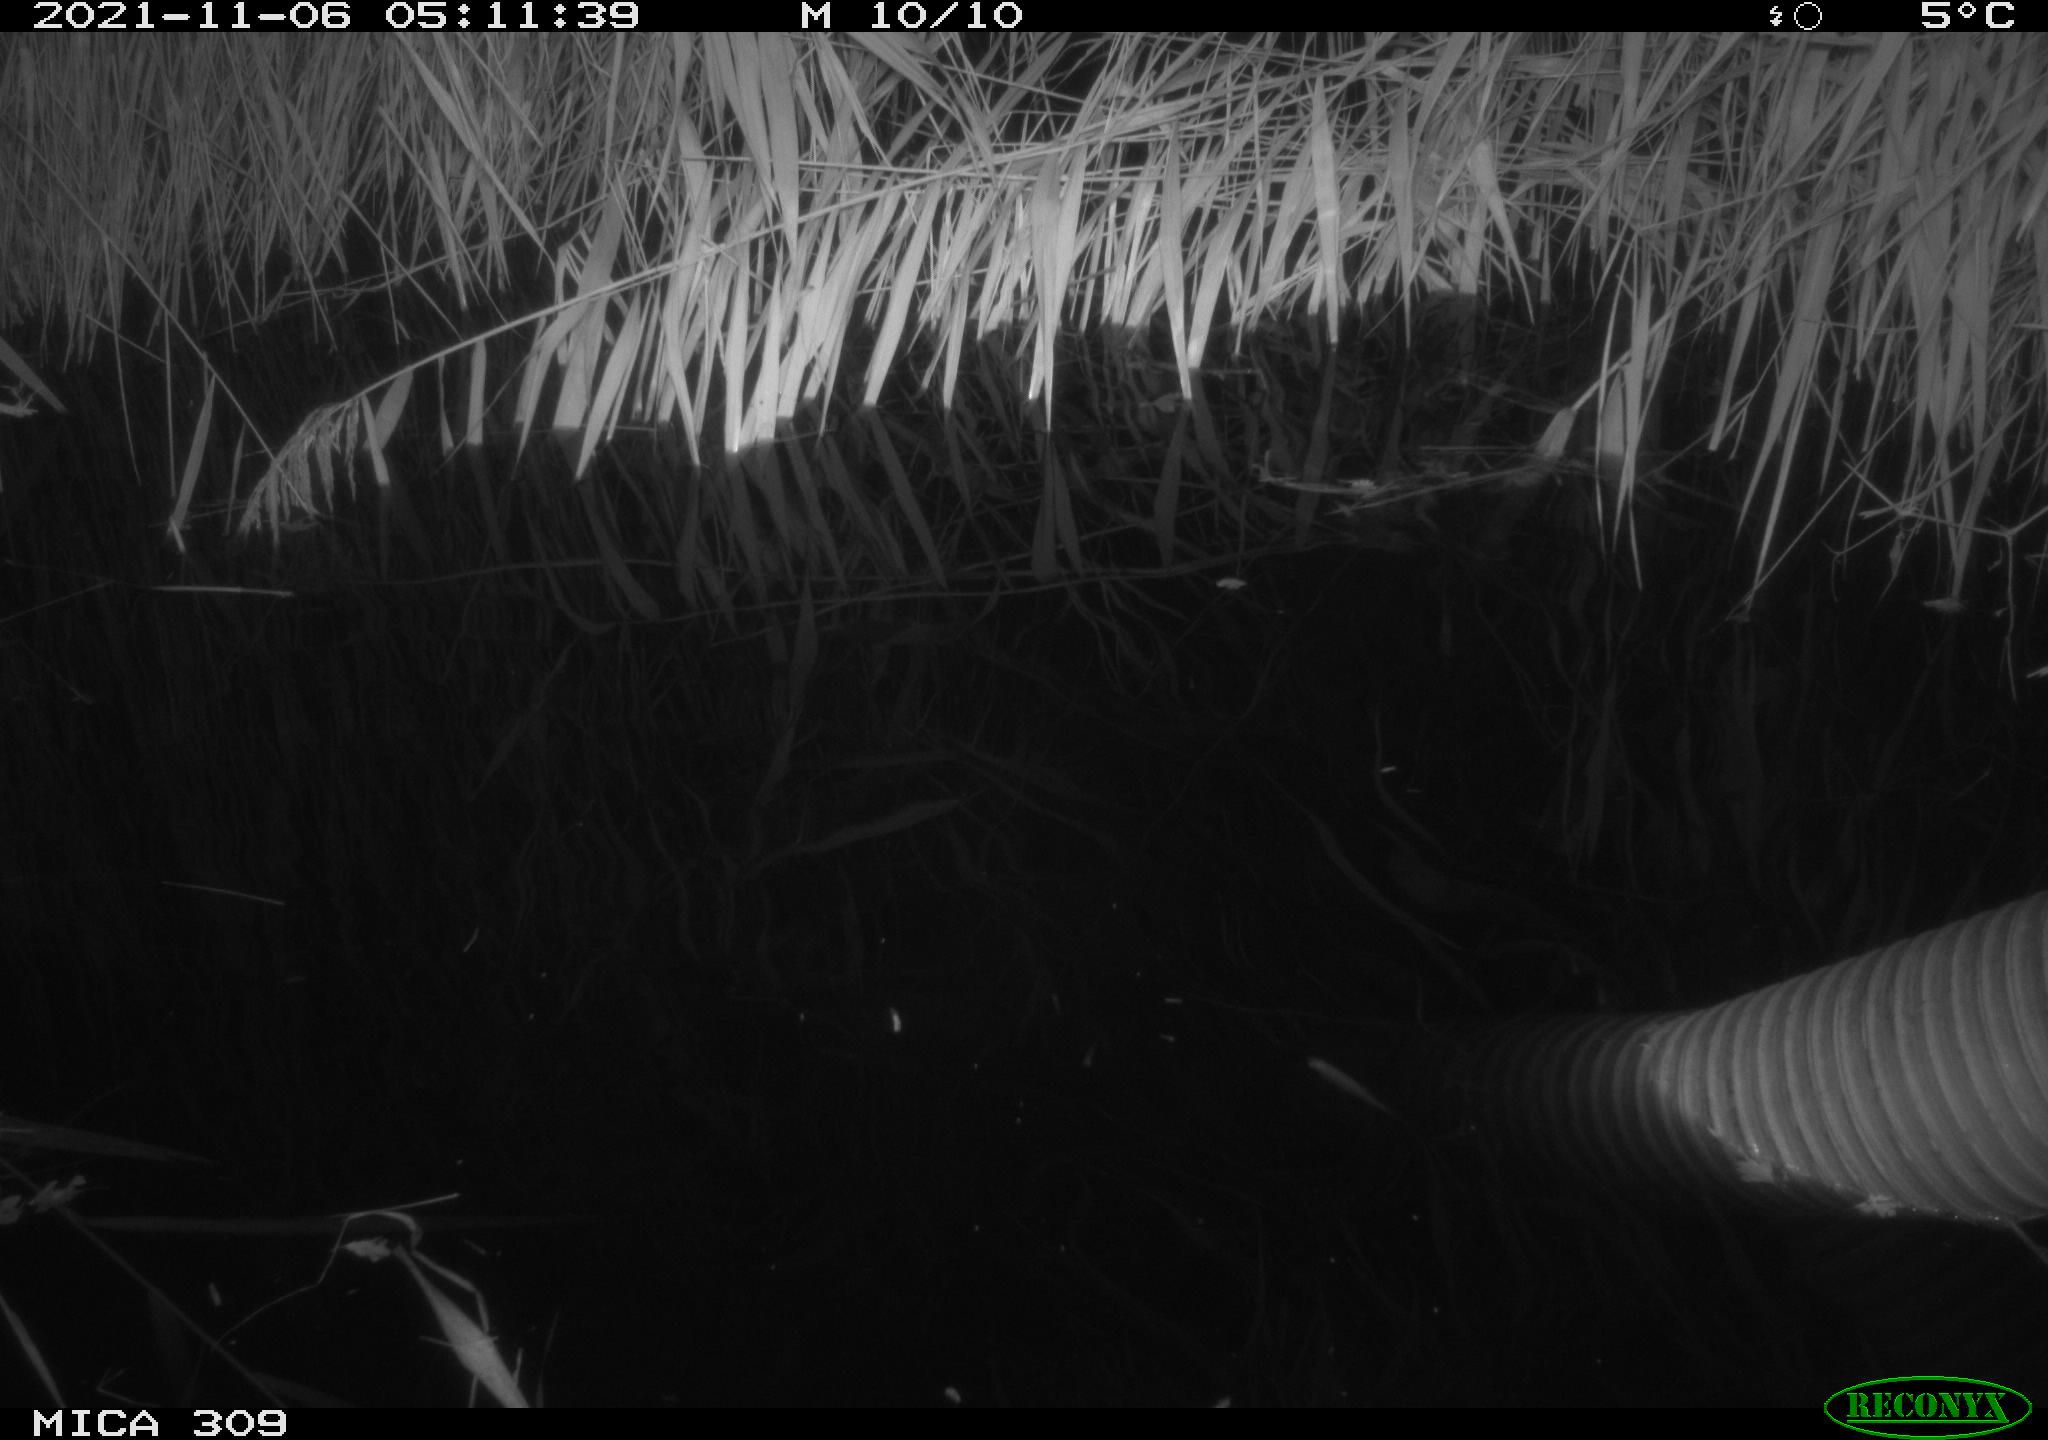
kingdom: Animalia
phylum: Chordata
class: Mammalia
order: Rodentia
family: Muridae
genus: Rattus
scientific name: Rattus norvegicus
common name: Brown rat
